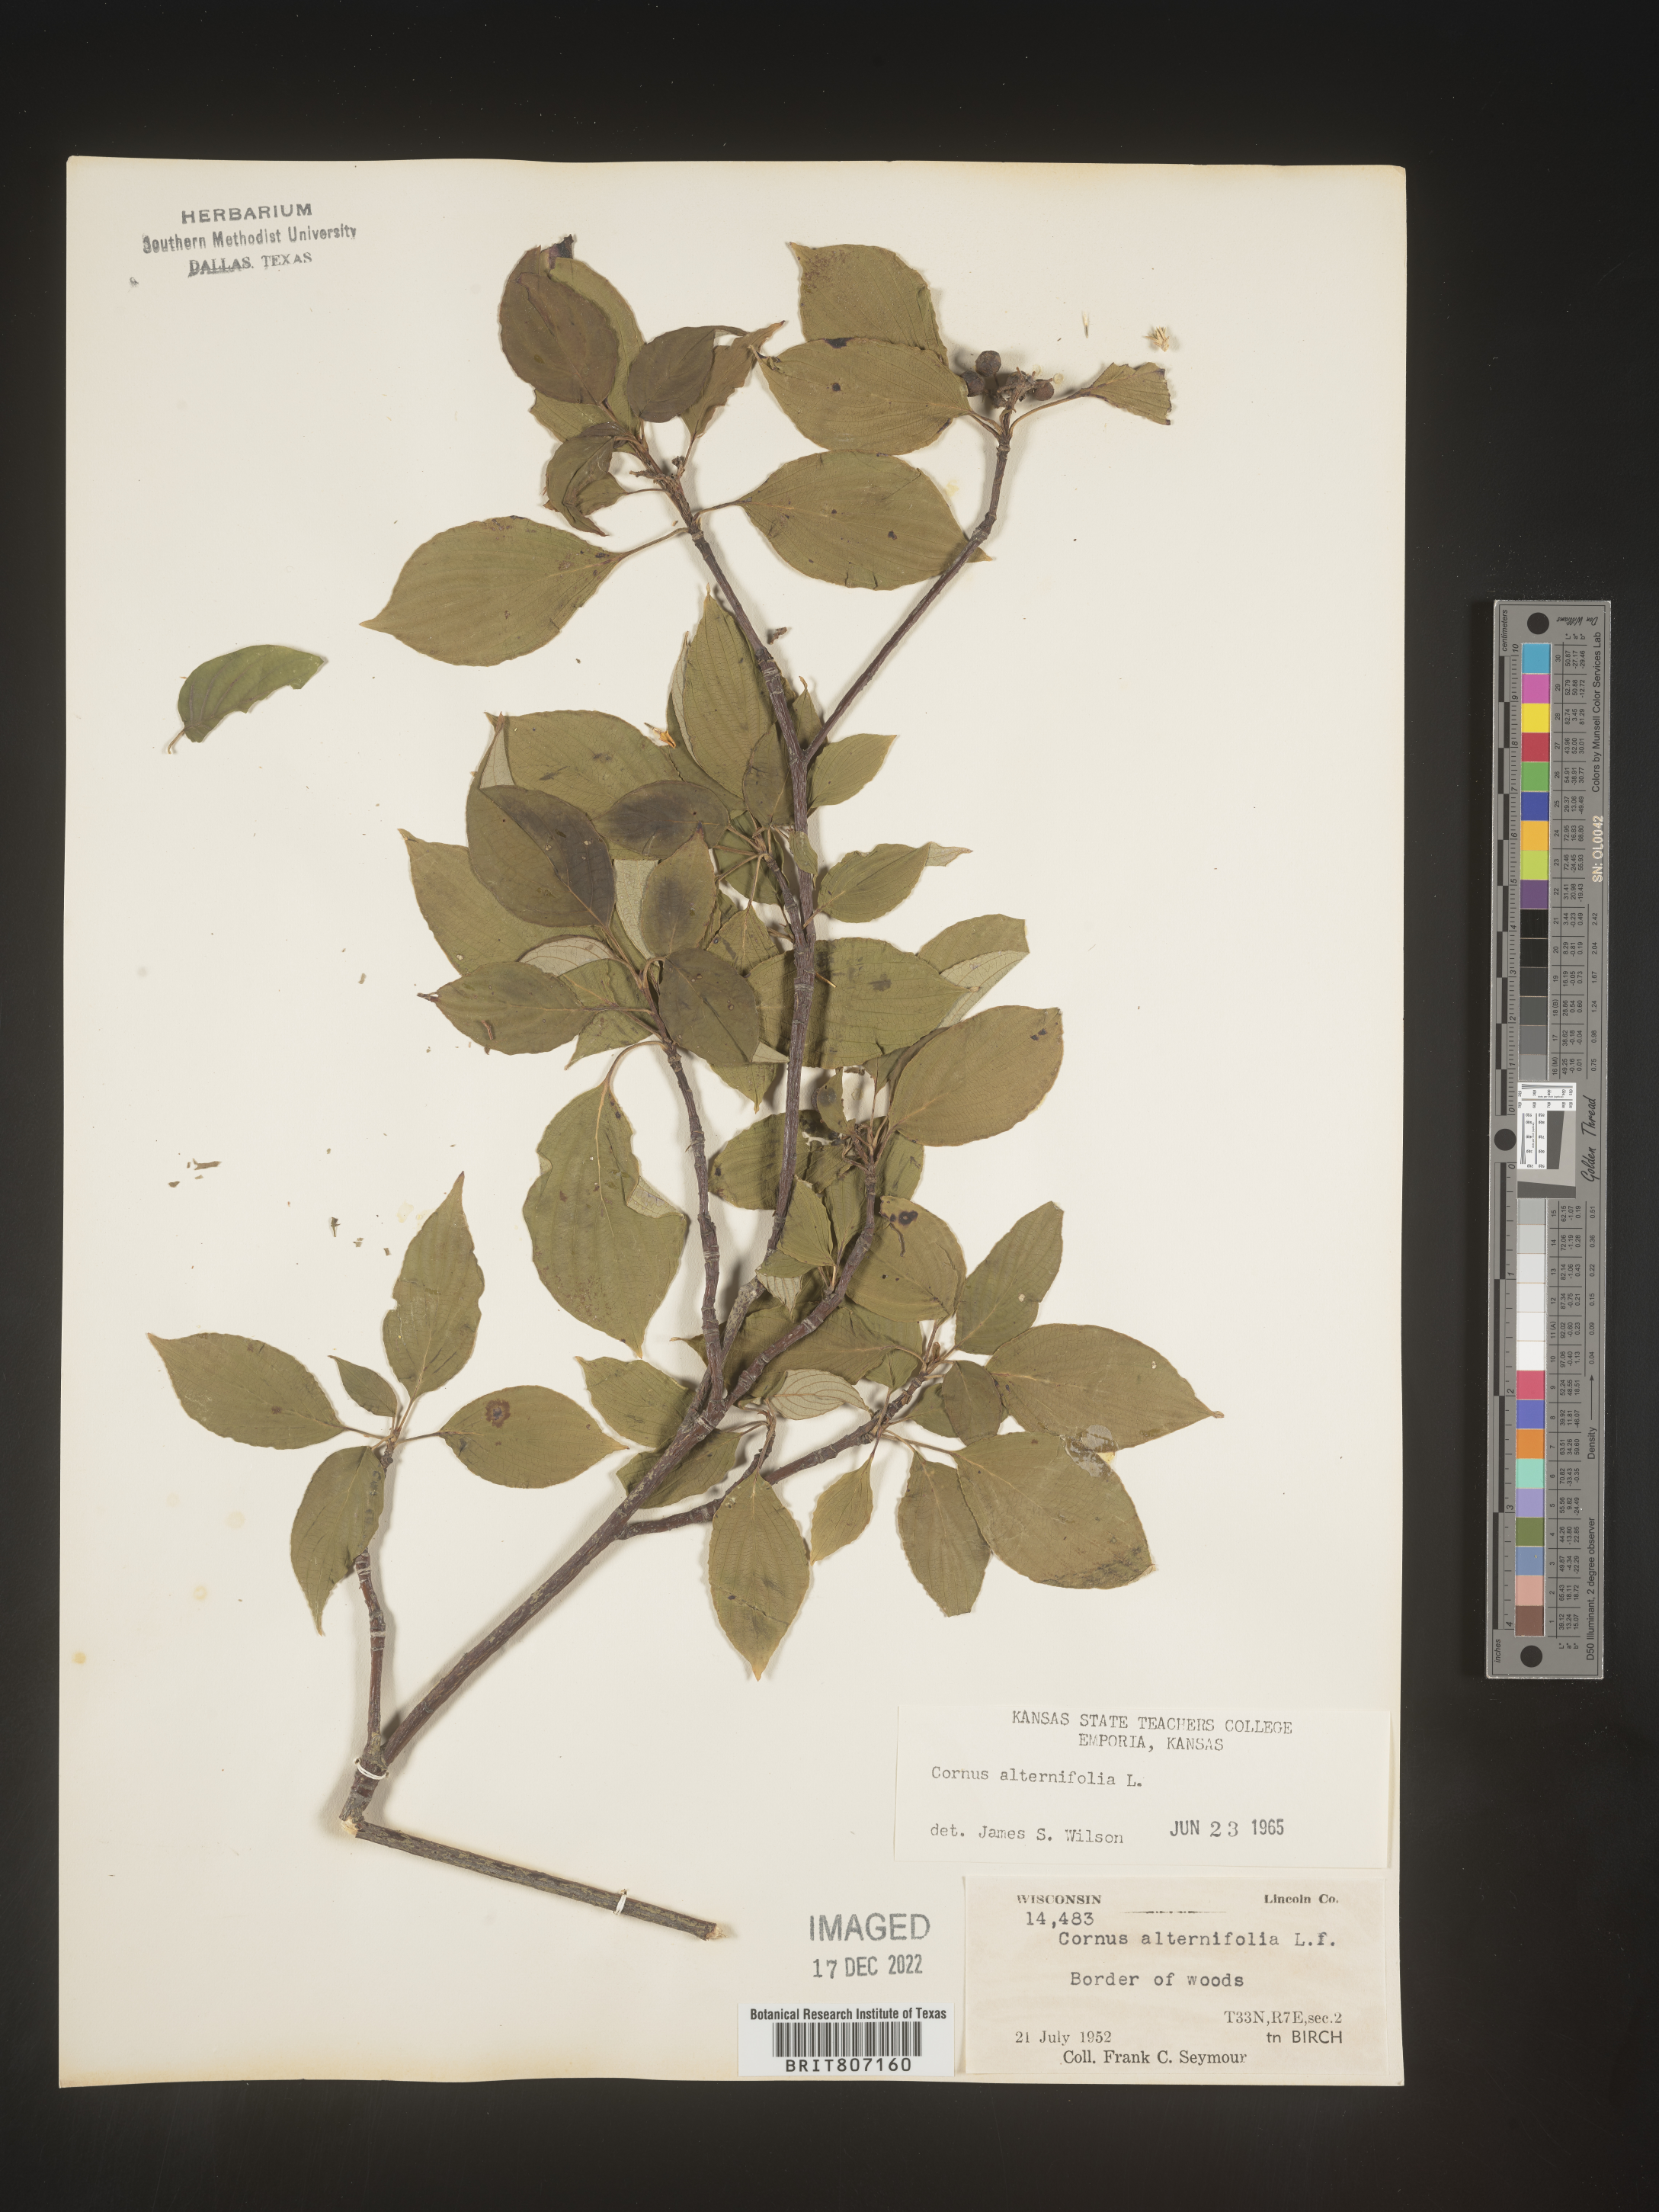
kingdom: Plantae
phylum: Tracheophyta
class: Magnoliopsida
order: Cornales
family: Cornaceae
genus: Cornus
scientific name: Cornus alternifolia
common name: Pagoda dogwood
